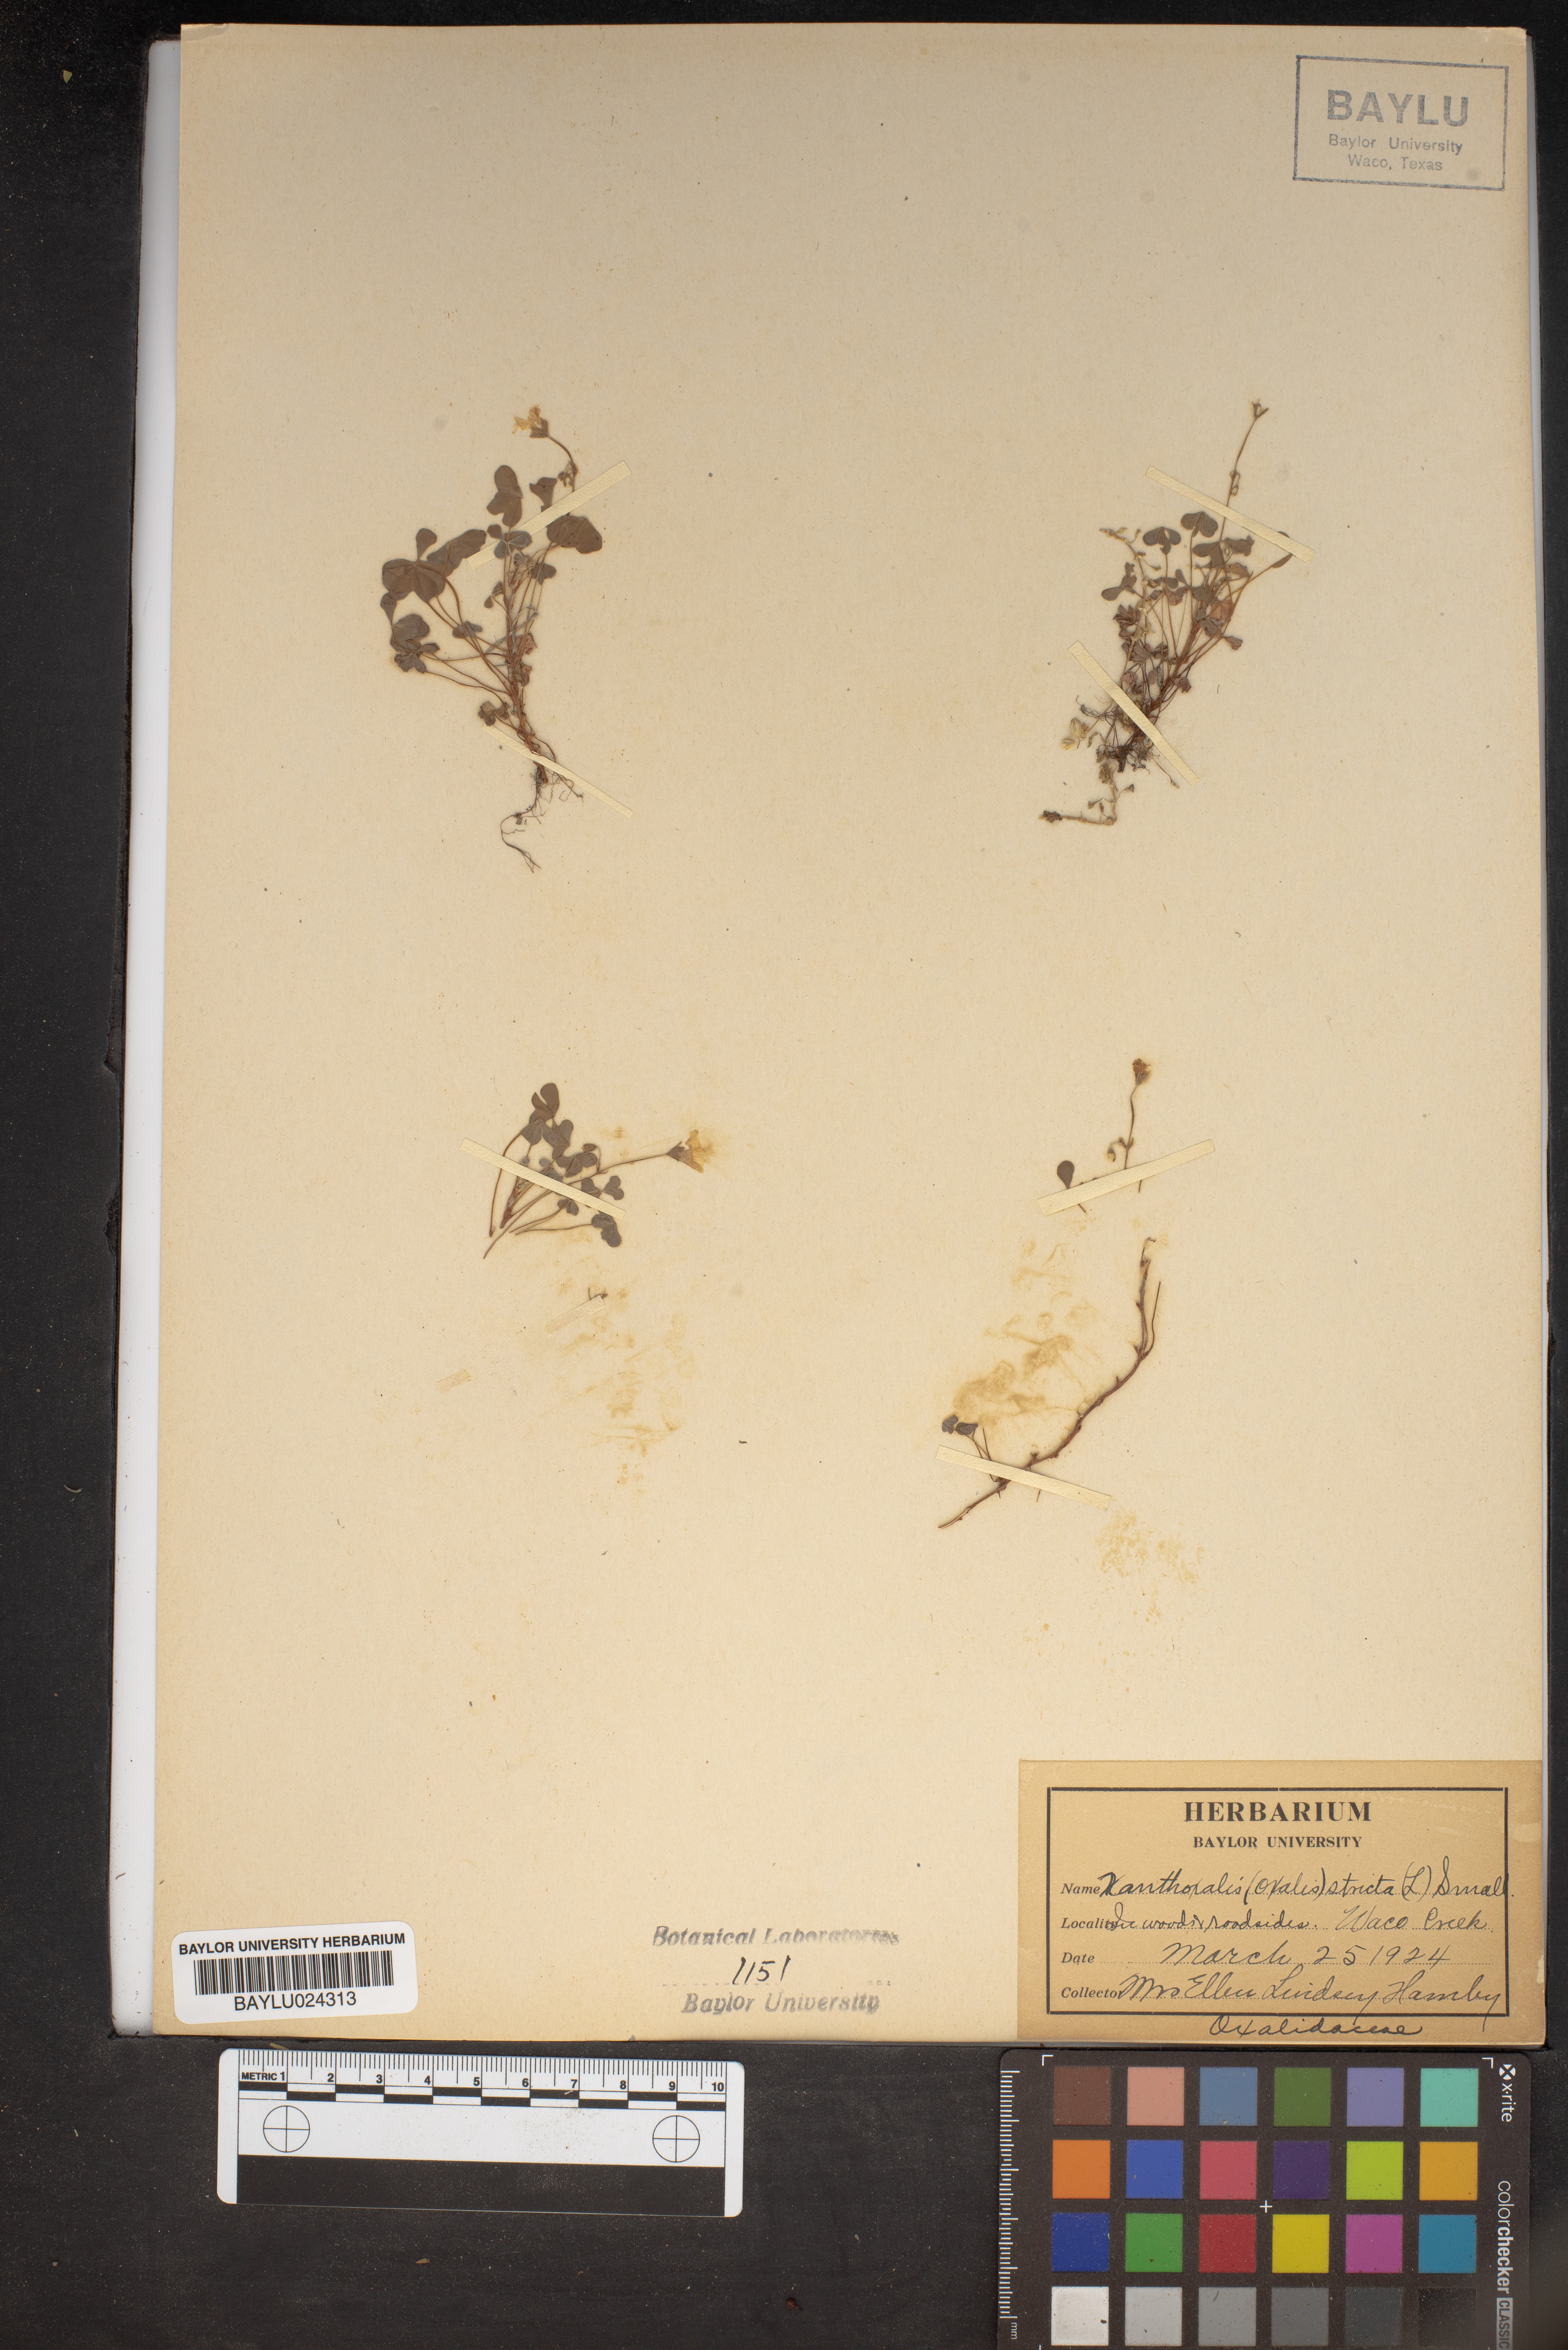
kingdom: Plantae
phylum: Tracheophyta
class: Magnoliopsida
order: Oxalidales
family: Oxalidaceae
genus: Oxalis
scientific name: Oxalis stricta
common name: Upright yellow-sorrel
